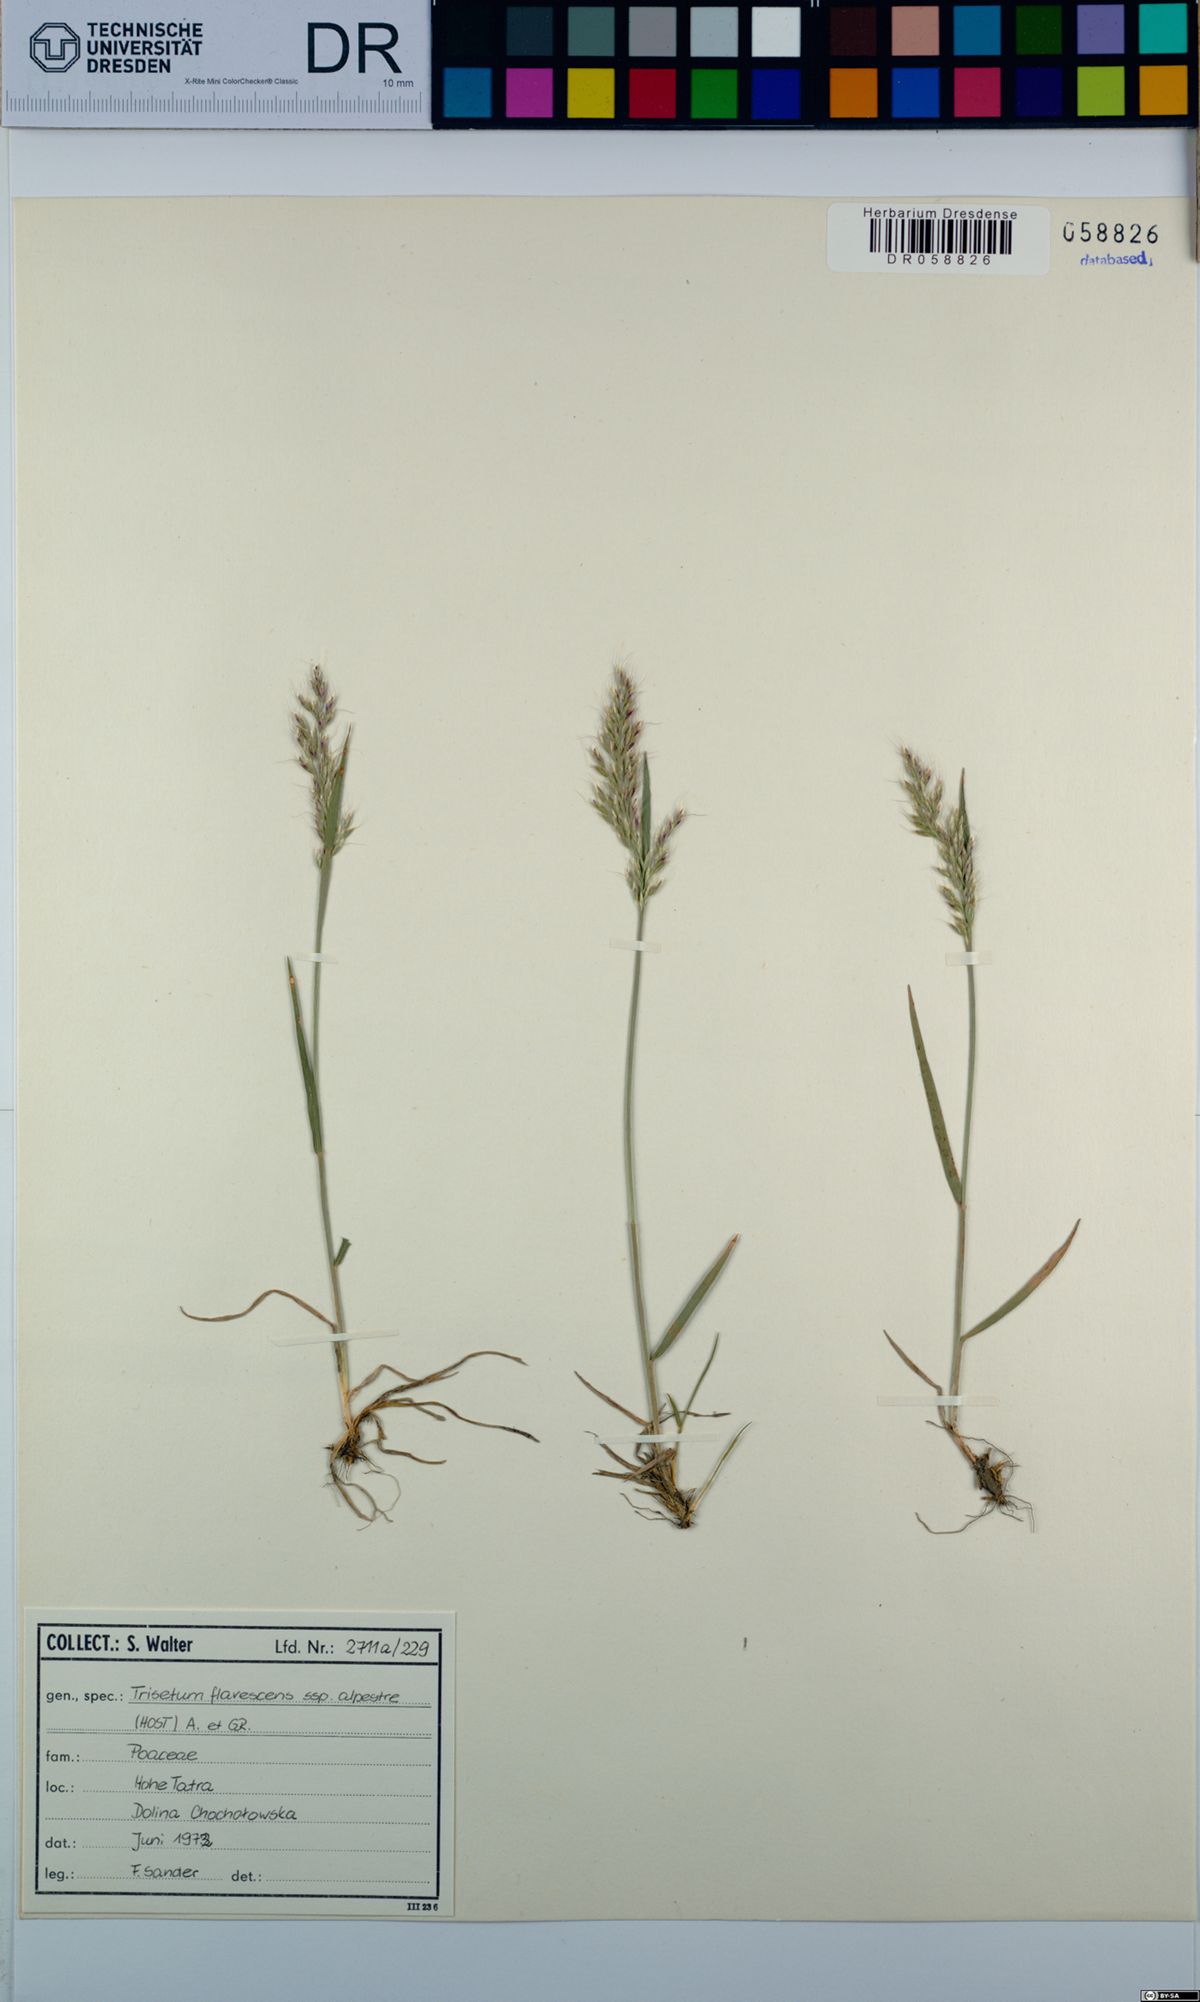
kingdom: Plantae
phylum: Tracheophyta
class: Liliopsida
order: Poales
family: Poaceae
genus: Trisetum
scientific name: Trisetum flavescens
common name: Yellow oat-grass
